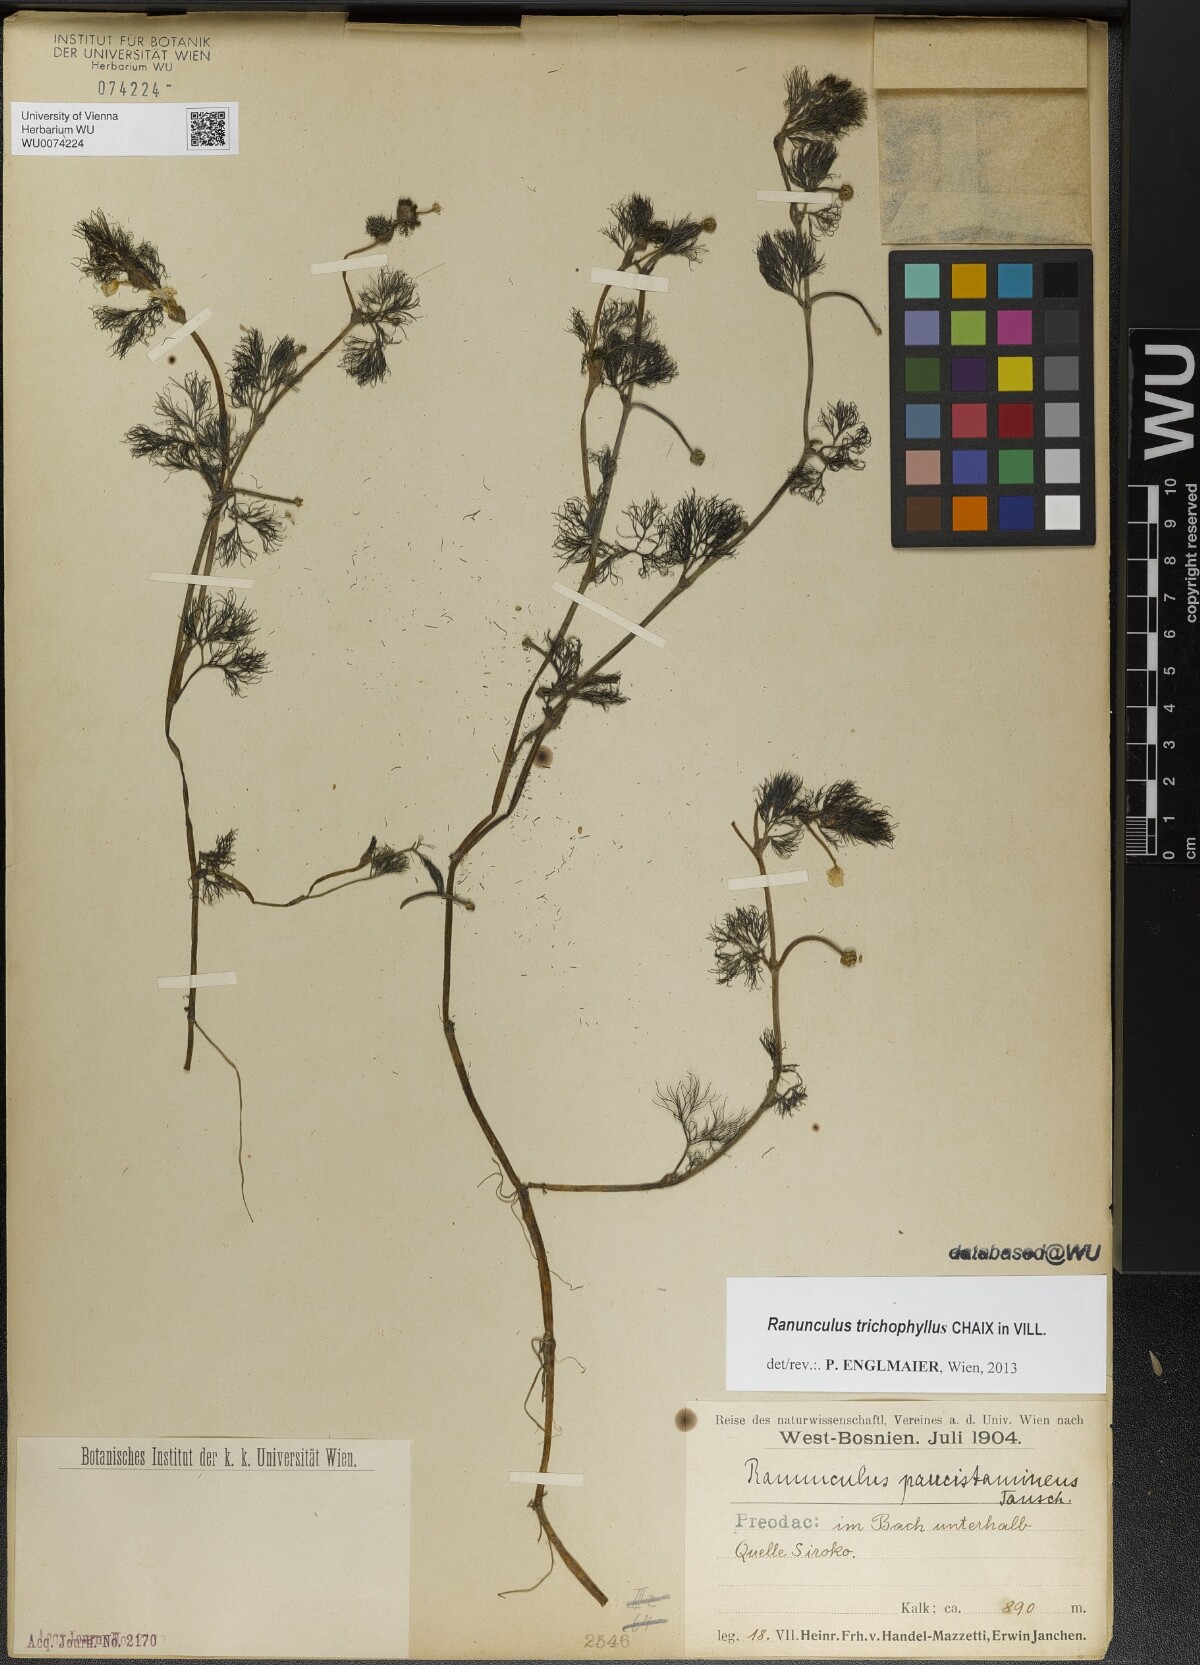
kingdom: Plantae
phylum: Tracheophyta
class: Magnoliopsida
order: Ranunculales
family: Ranunculaceae
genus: Ranunculus
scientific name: Ranunculus trichophyllus
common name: Thread-leaved water-crowfoot
